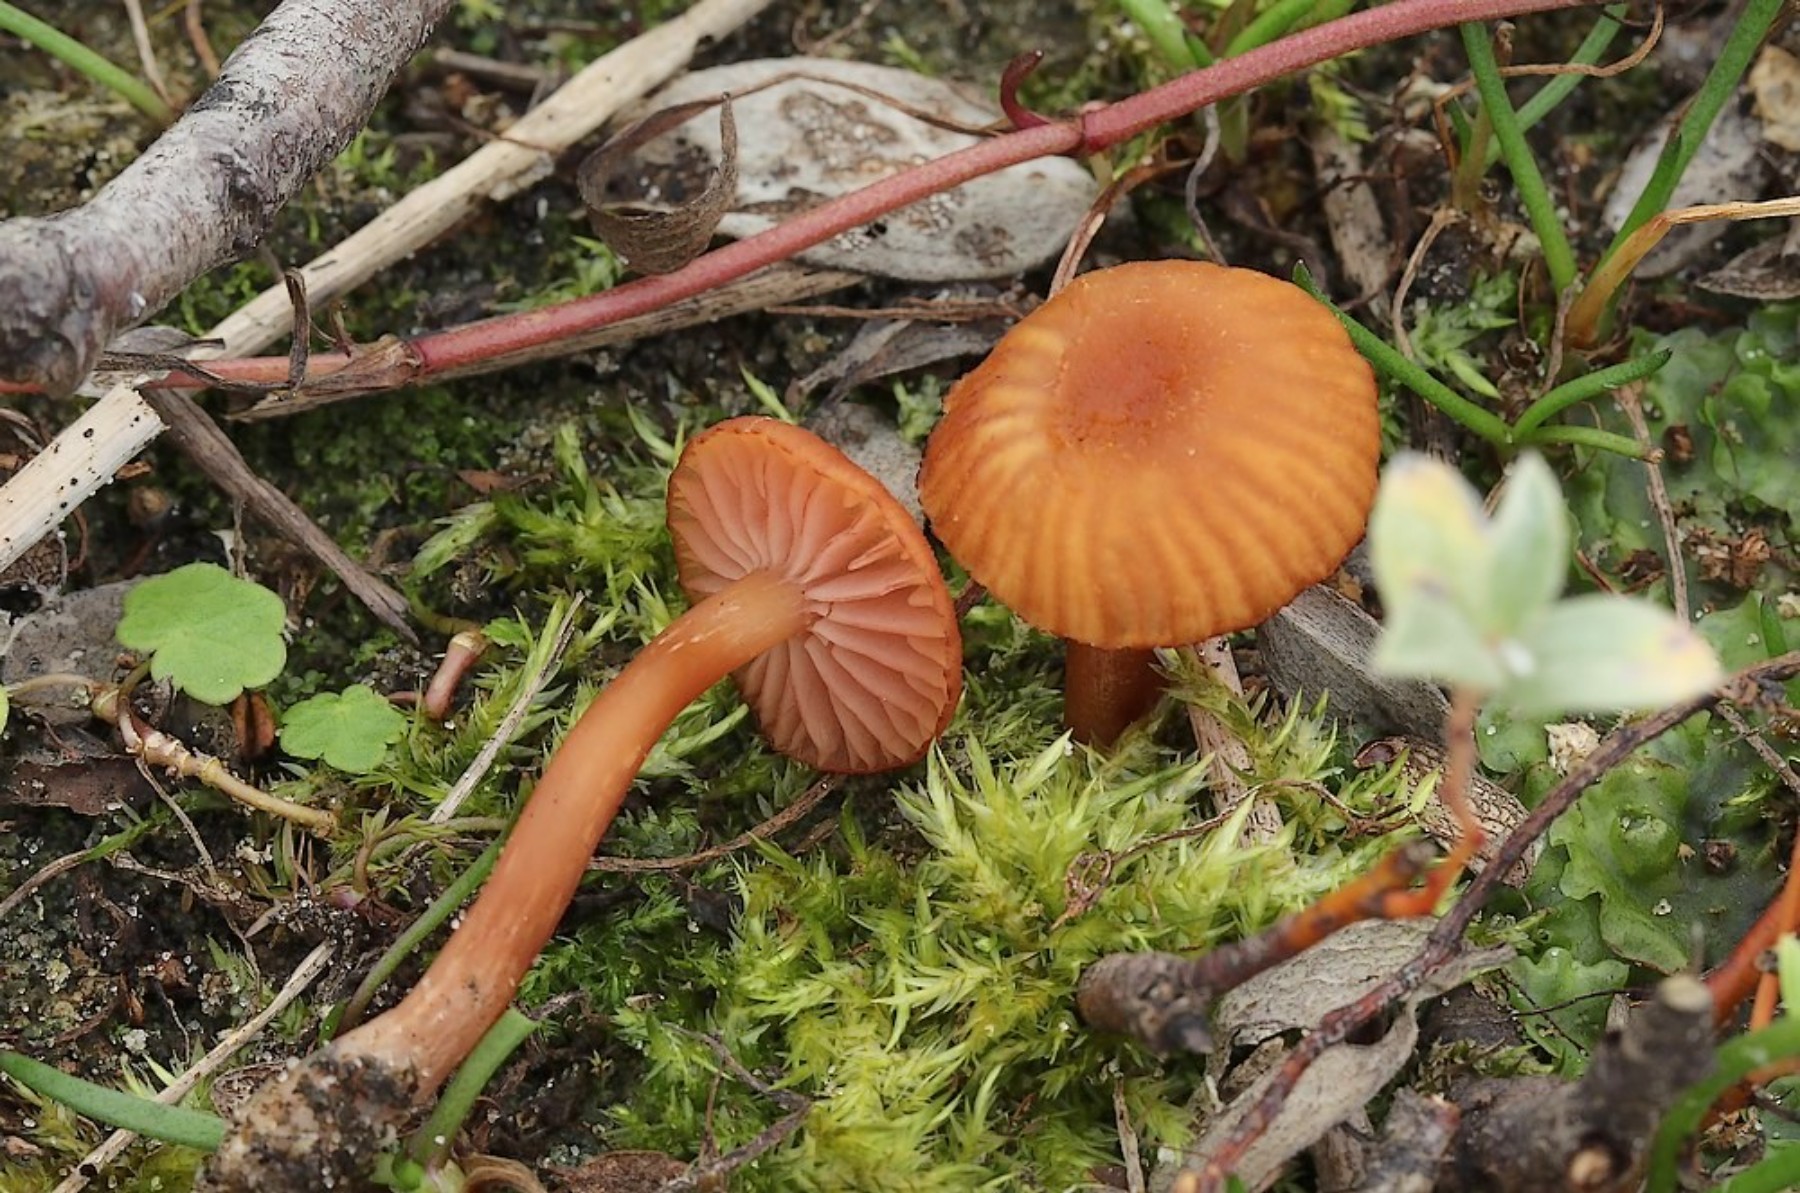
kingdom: Fungi
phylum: Basidiomycota
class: Agaricomycetes
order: Agaricales
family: Hydnangiaceae
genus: Laccaria
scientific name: Laccaria laccata
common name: rød ametysthat
